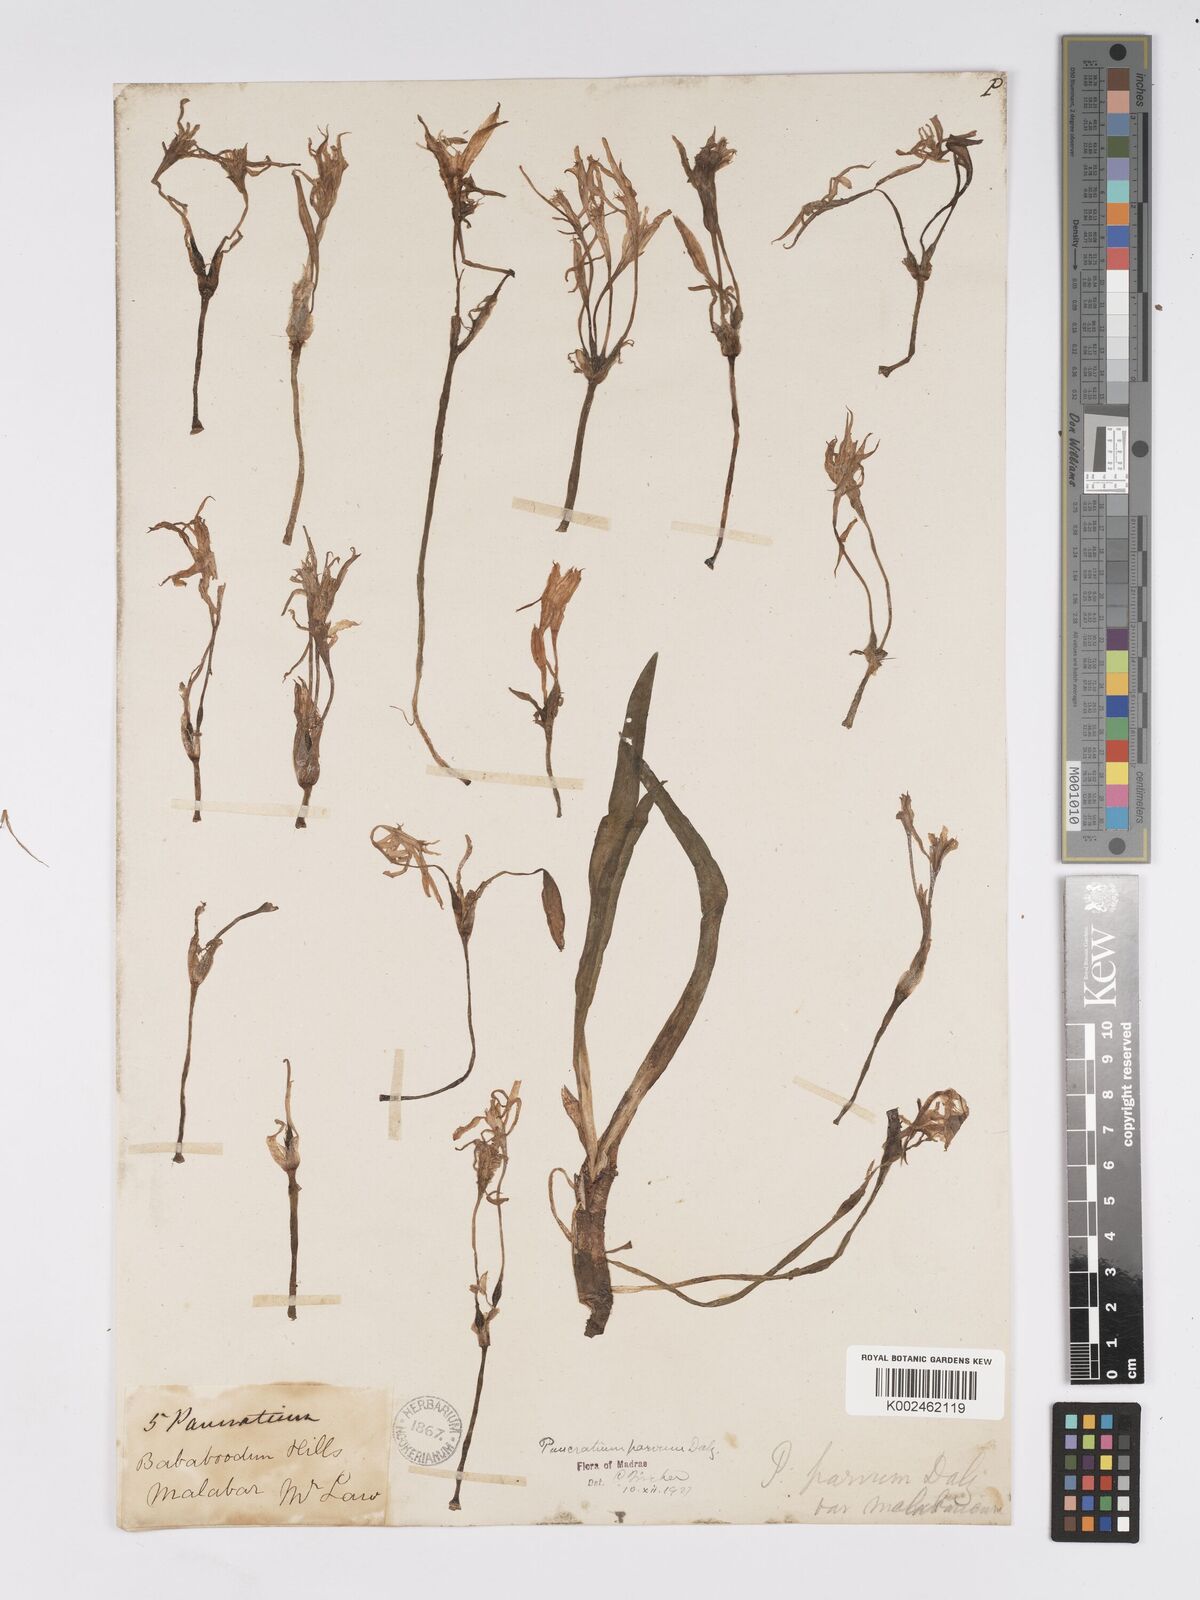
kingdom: Plantae
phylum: Tracheophyta
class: Liliopsida
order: Asparagales
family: Amaryllidaceae
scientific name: Amaryllidaceae
